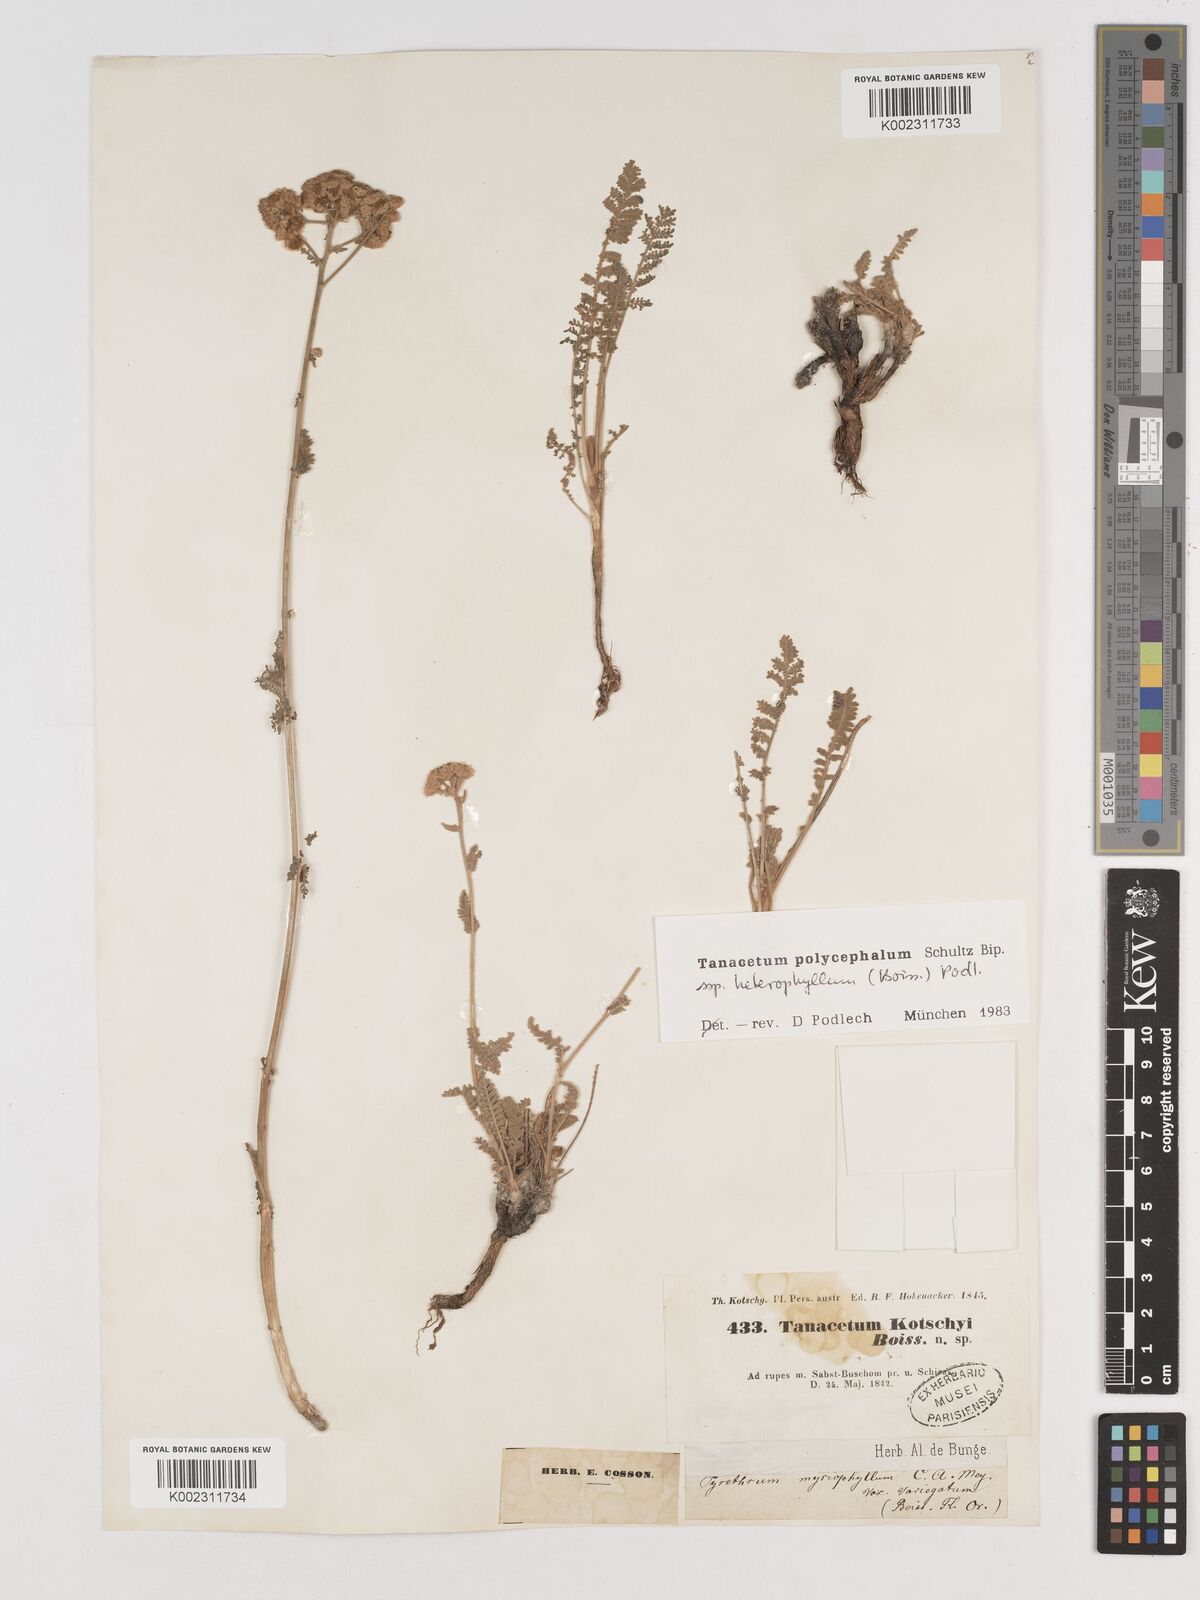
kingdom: Plantae
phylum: Tracheophyta
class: Magnoliopsida
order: Asterales
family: Asteraceae
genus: Tanacetum
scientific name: Tanacetum polycephalum
